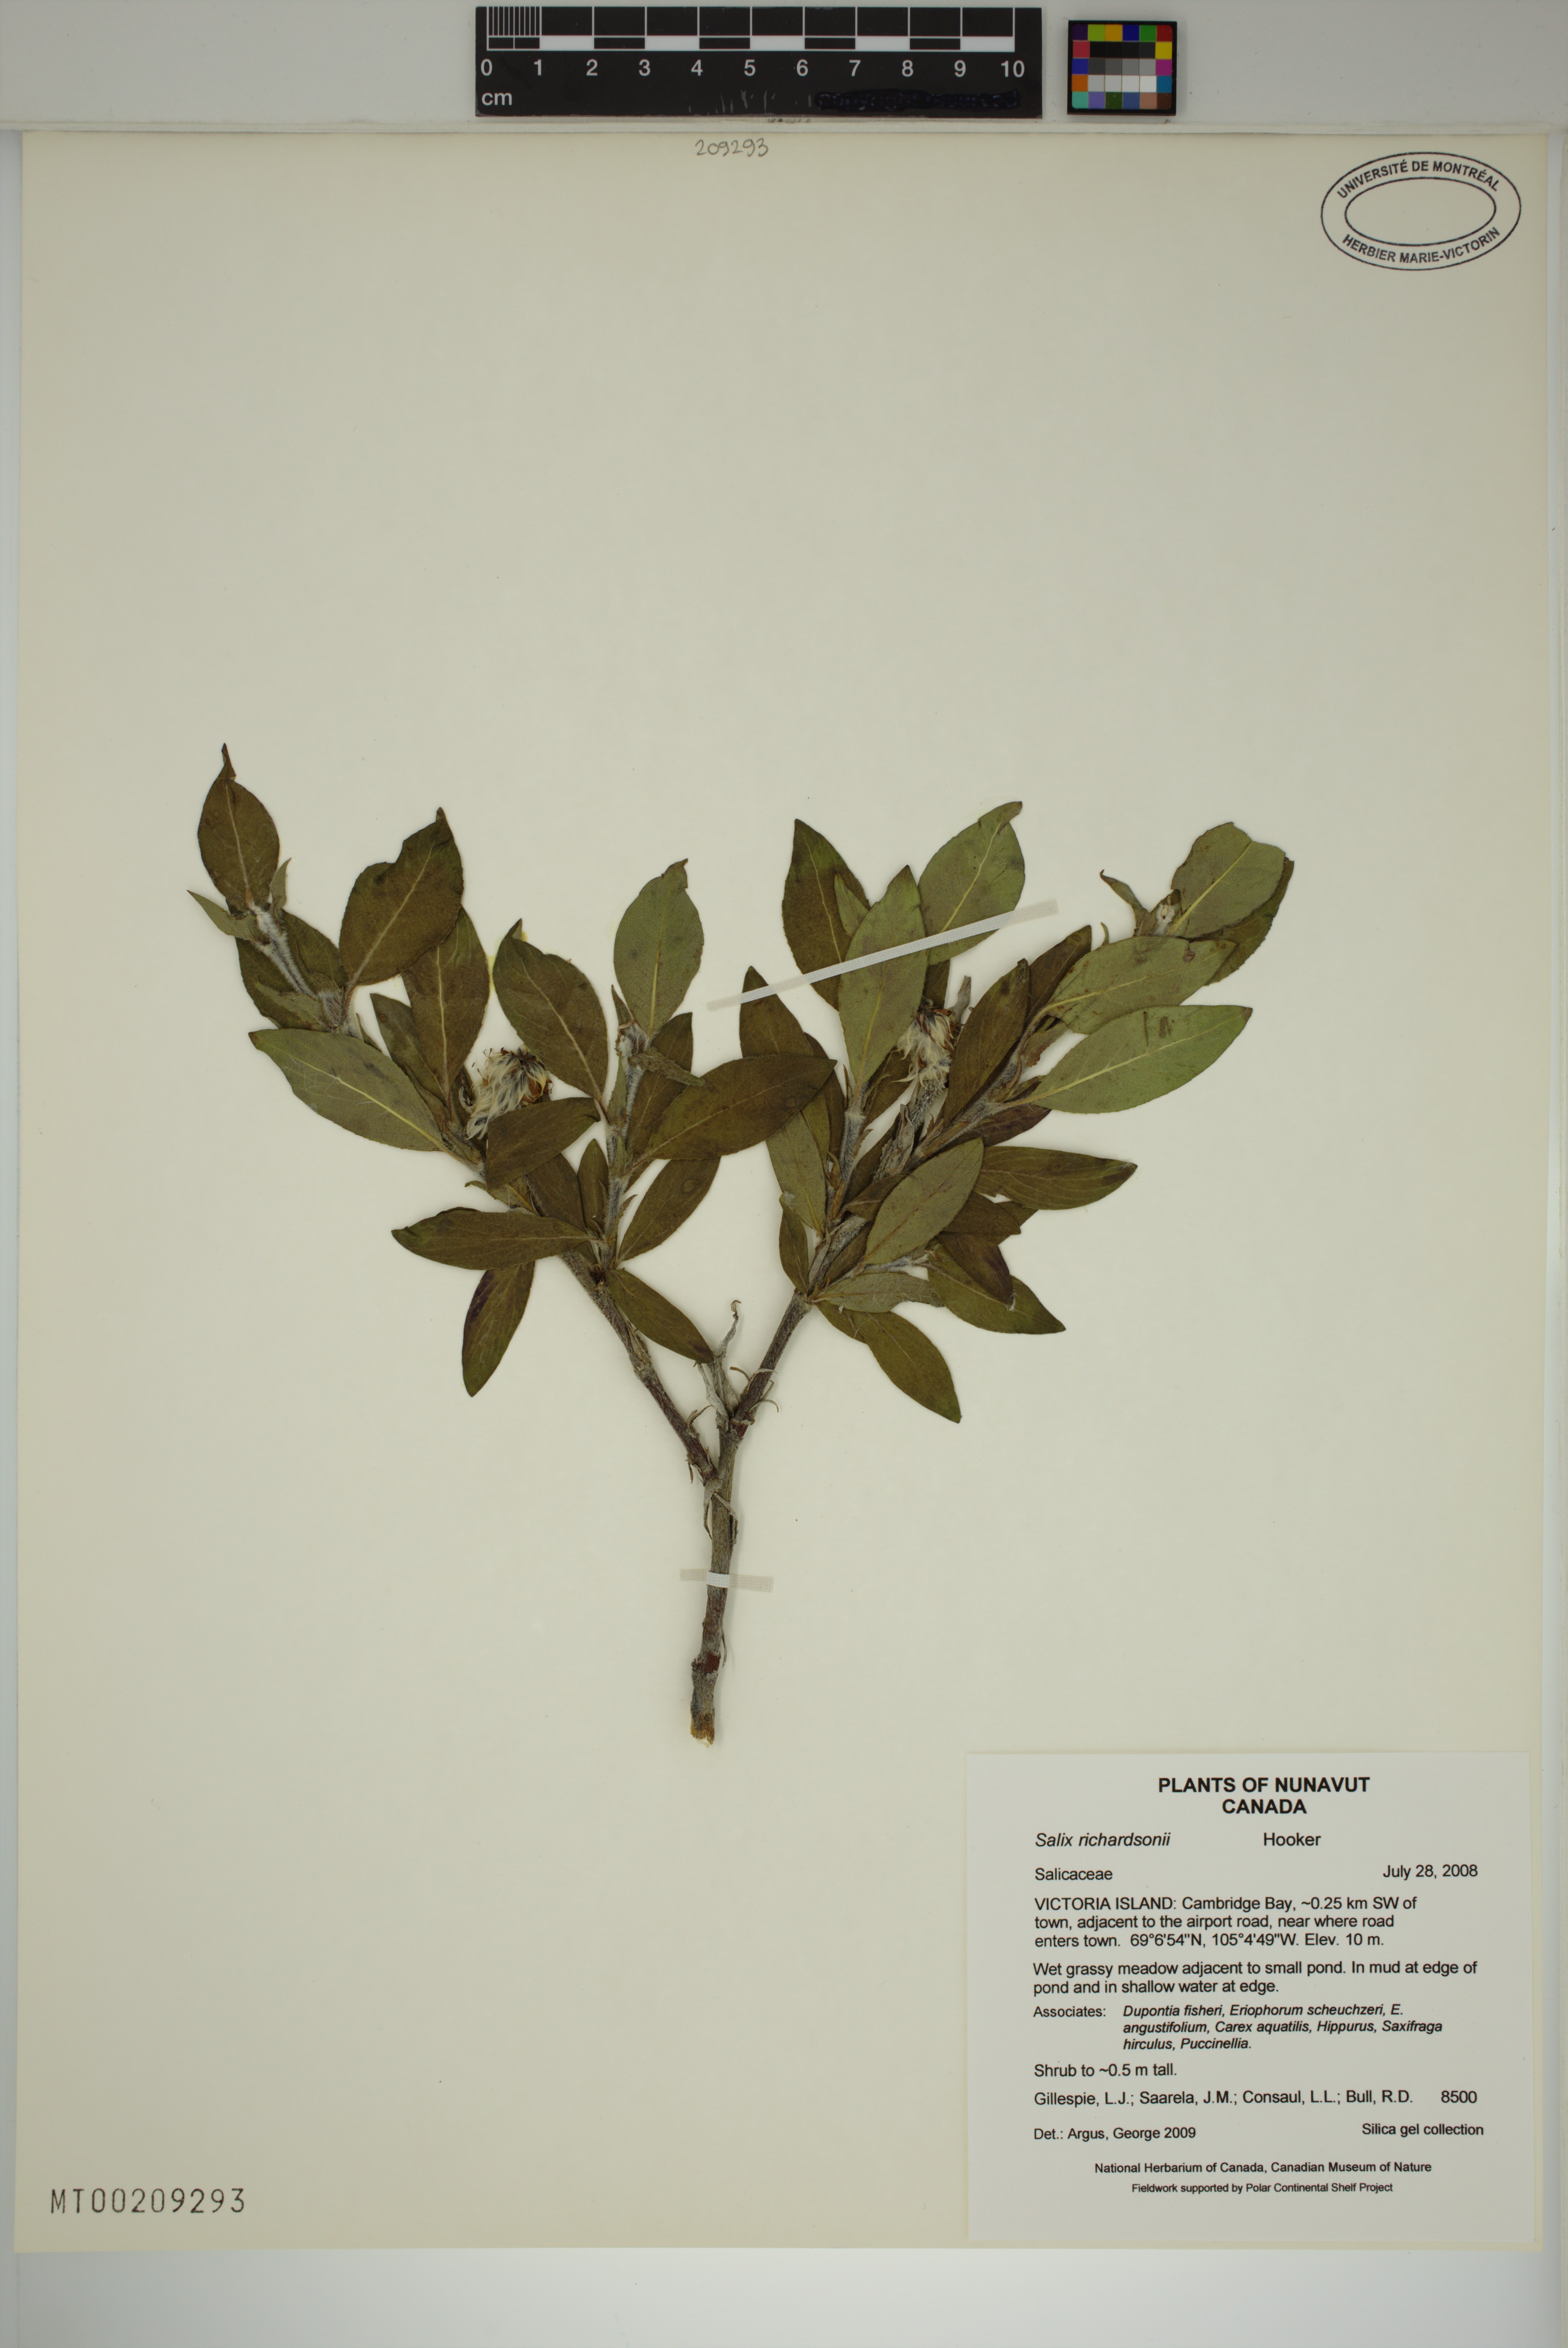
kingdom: Plantae
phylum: Tracheophyta
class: Magnoliopsida
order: Malpighiales
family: Salicaceae
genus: Salix
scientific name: Salix richardsonii
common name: Richardson’s willow
